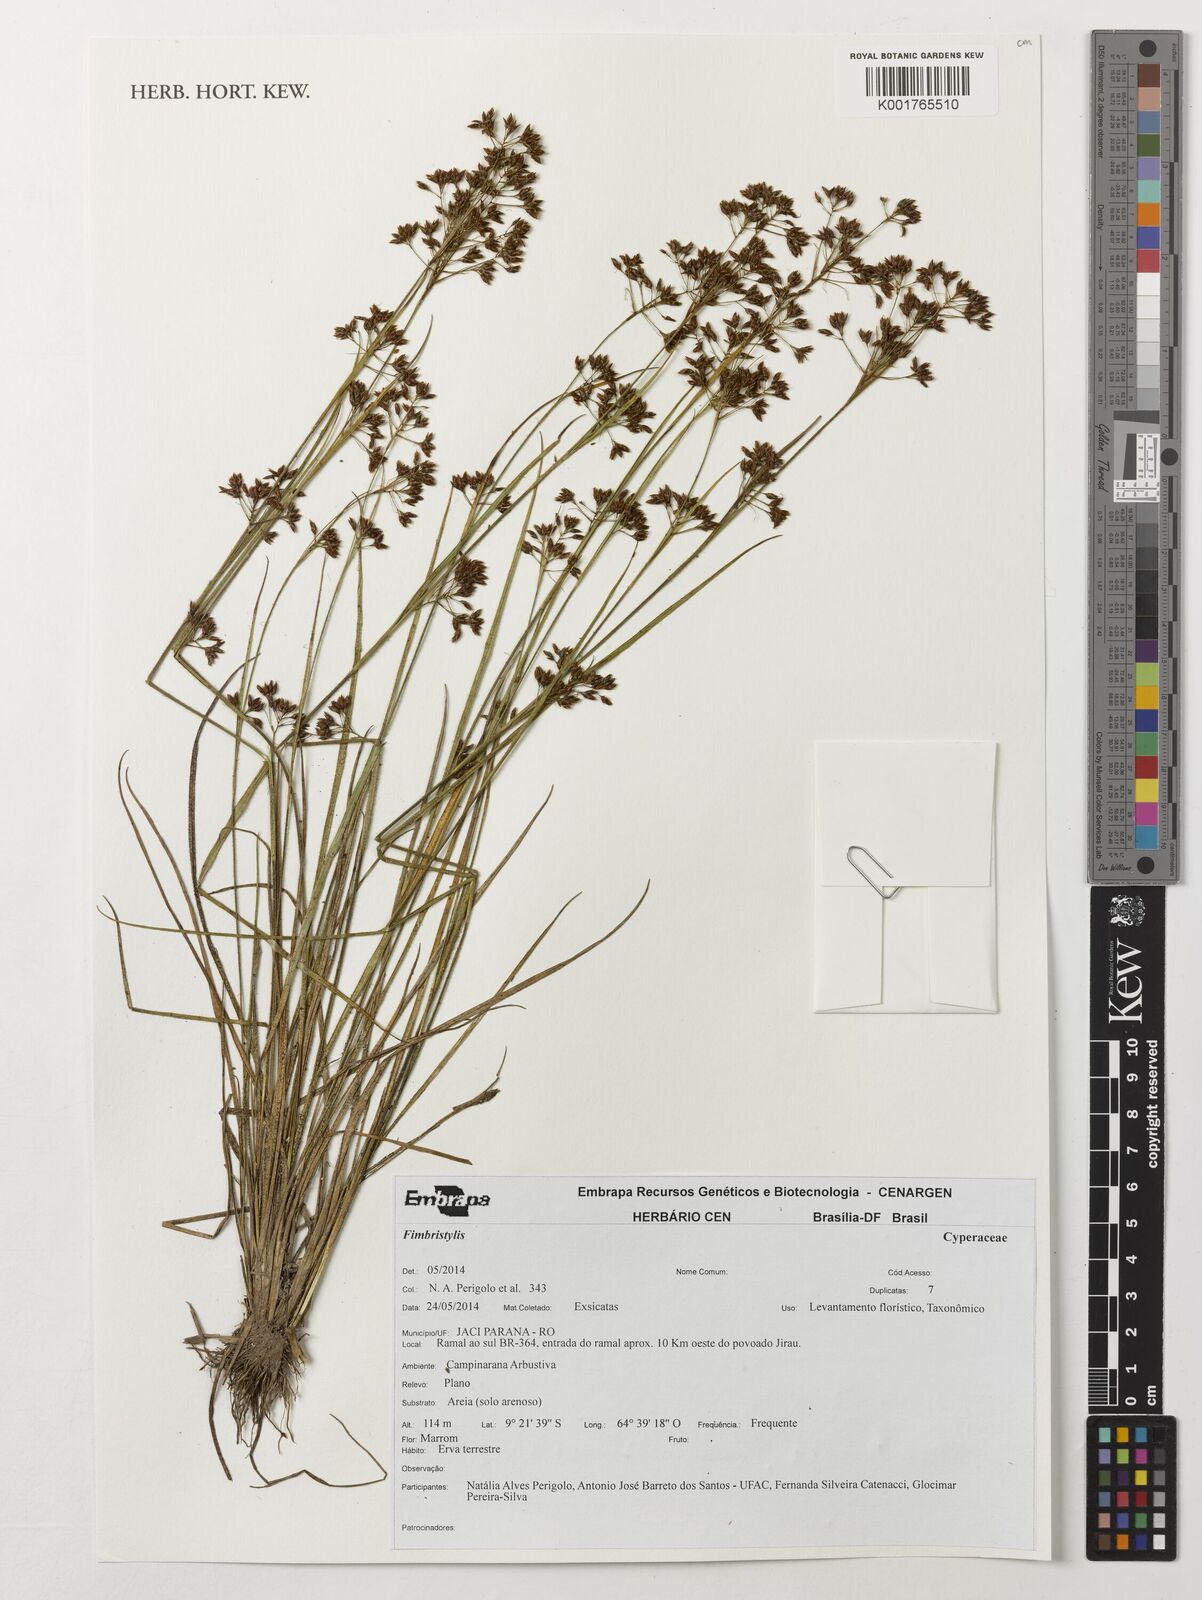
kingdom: Plantae
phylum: Tracheophyta
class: Liliopsida
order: Poales
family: Cyperaceae
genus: Fimbristylis
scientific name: Fimbristylis
